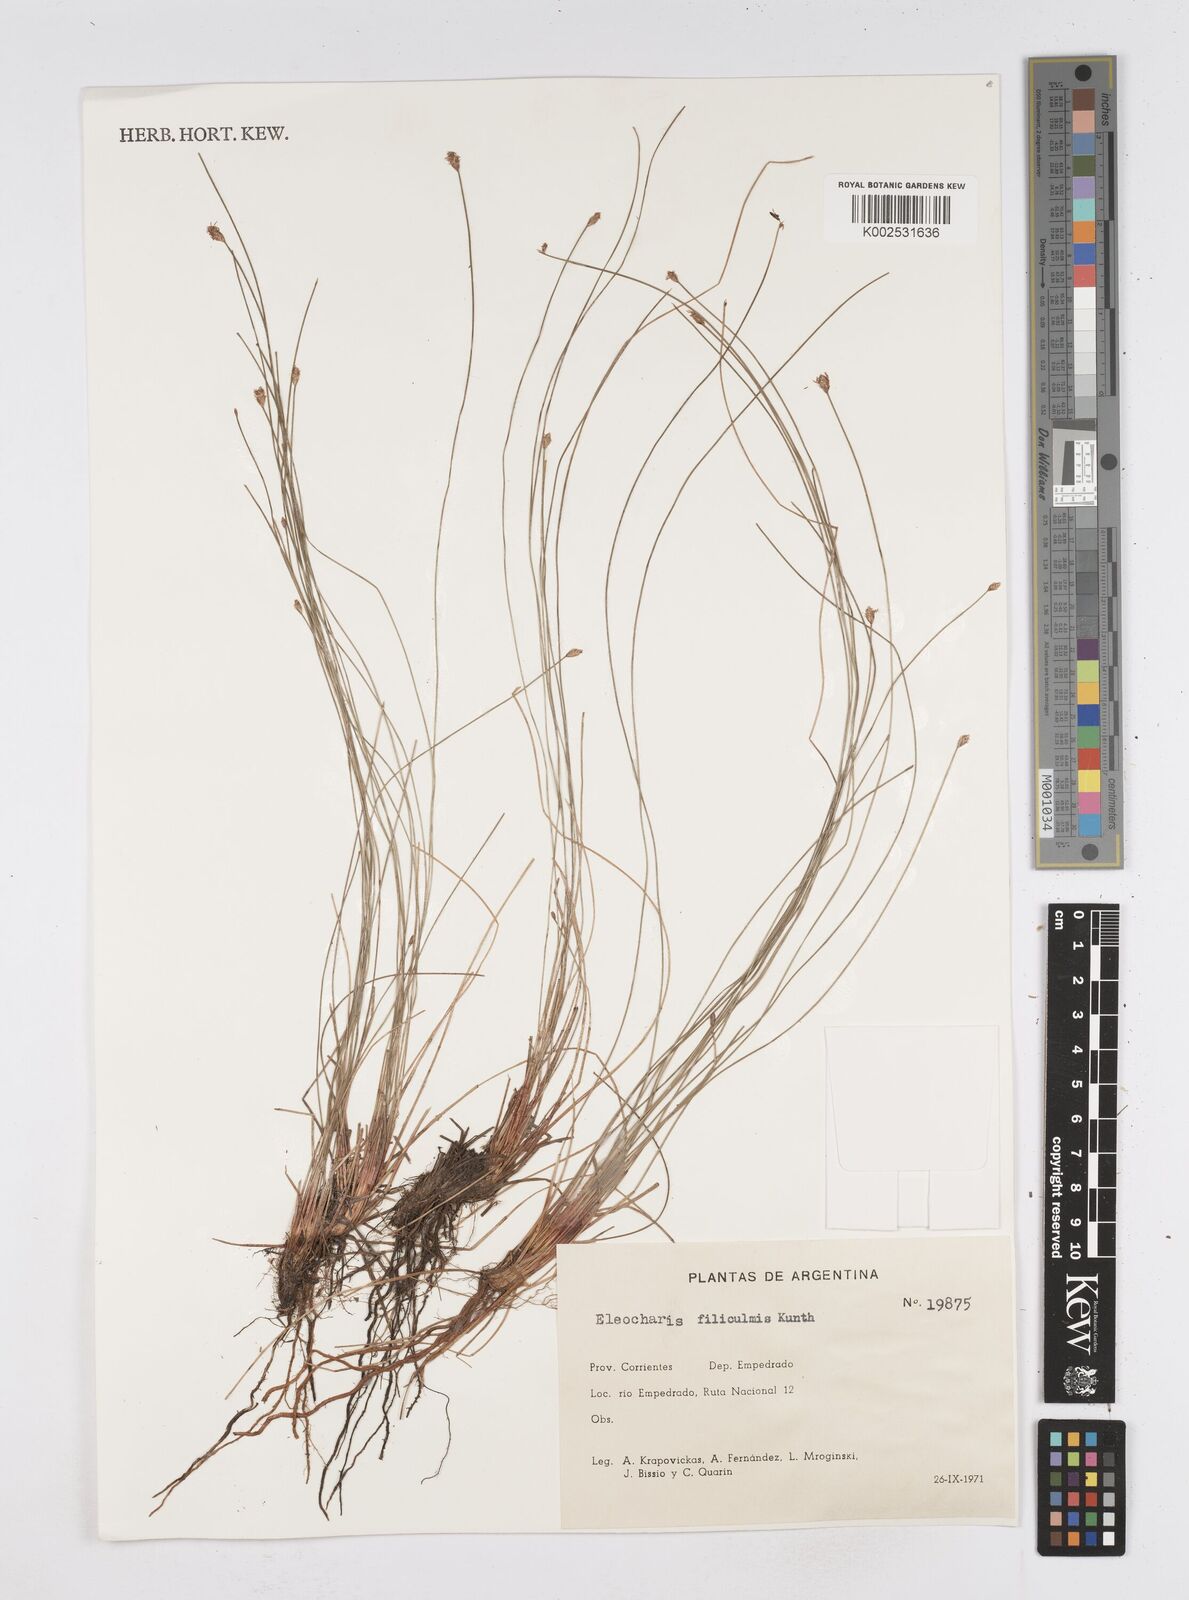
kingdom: Plantae
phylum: Tracheophyta
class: Liliopsida
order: Poales
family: Cyperaceae
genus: Eleocharis
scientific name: Eleocharis filiculmis
